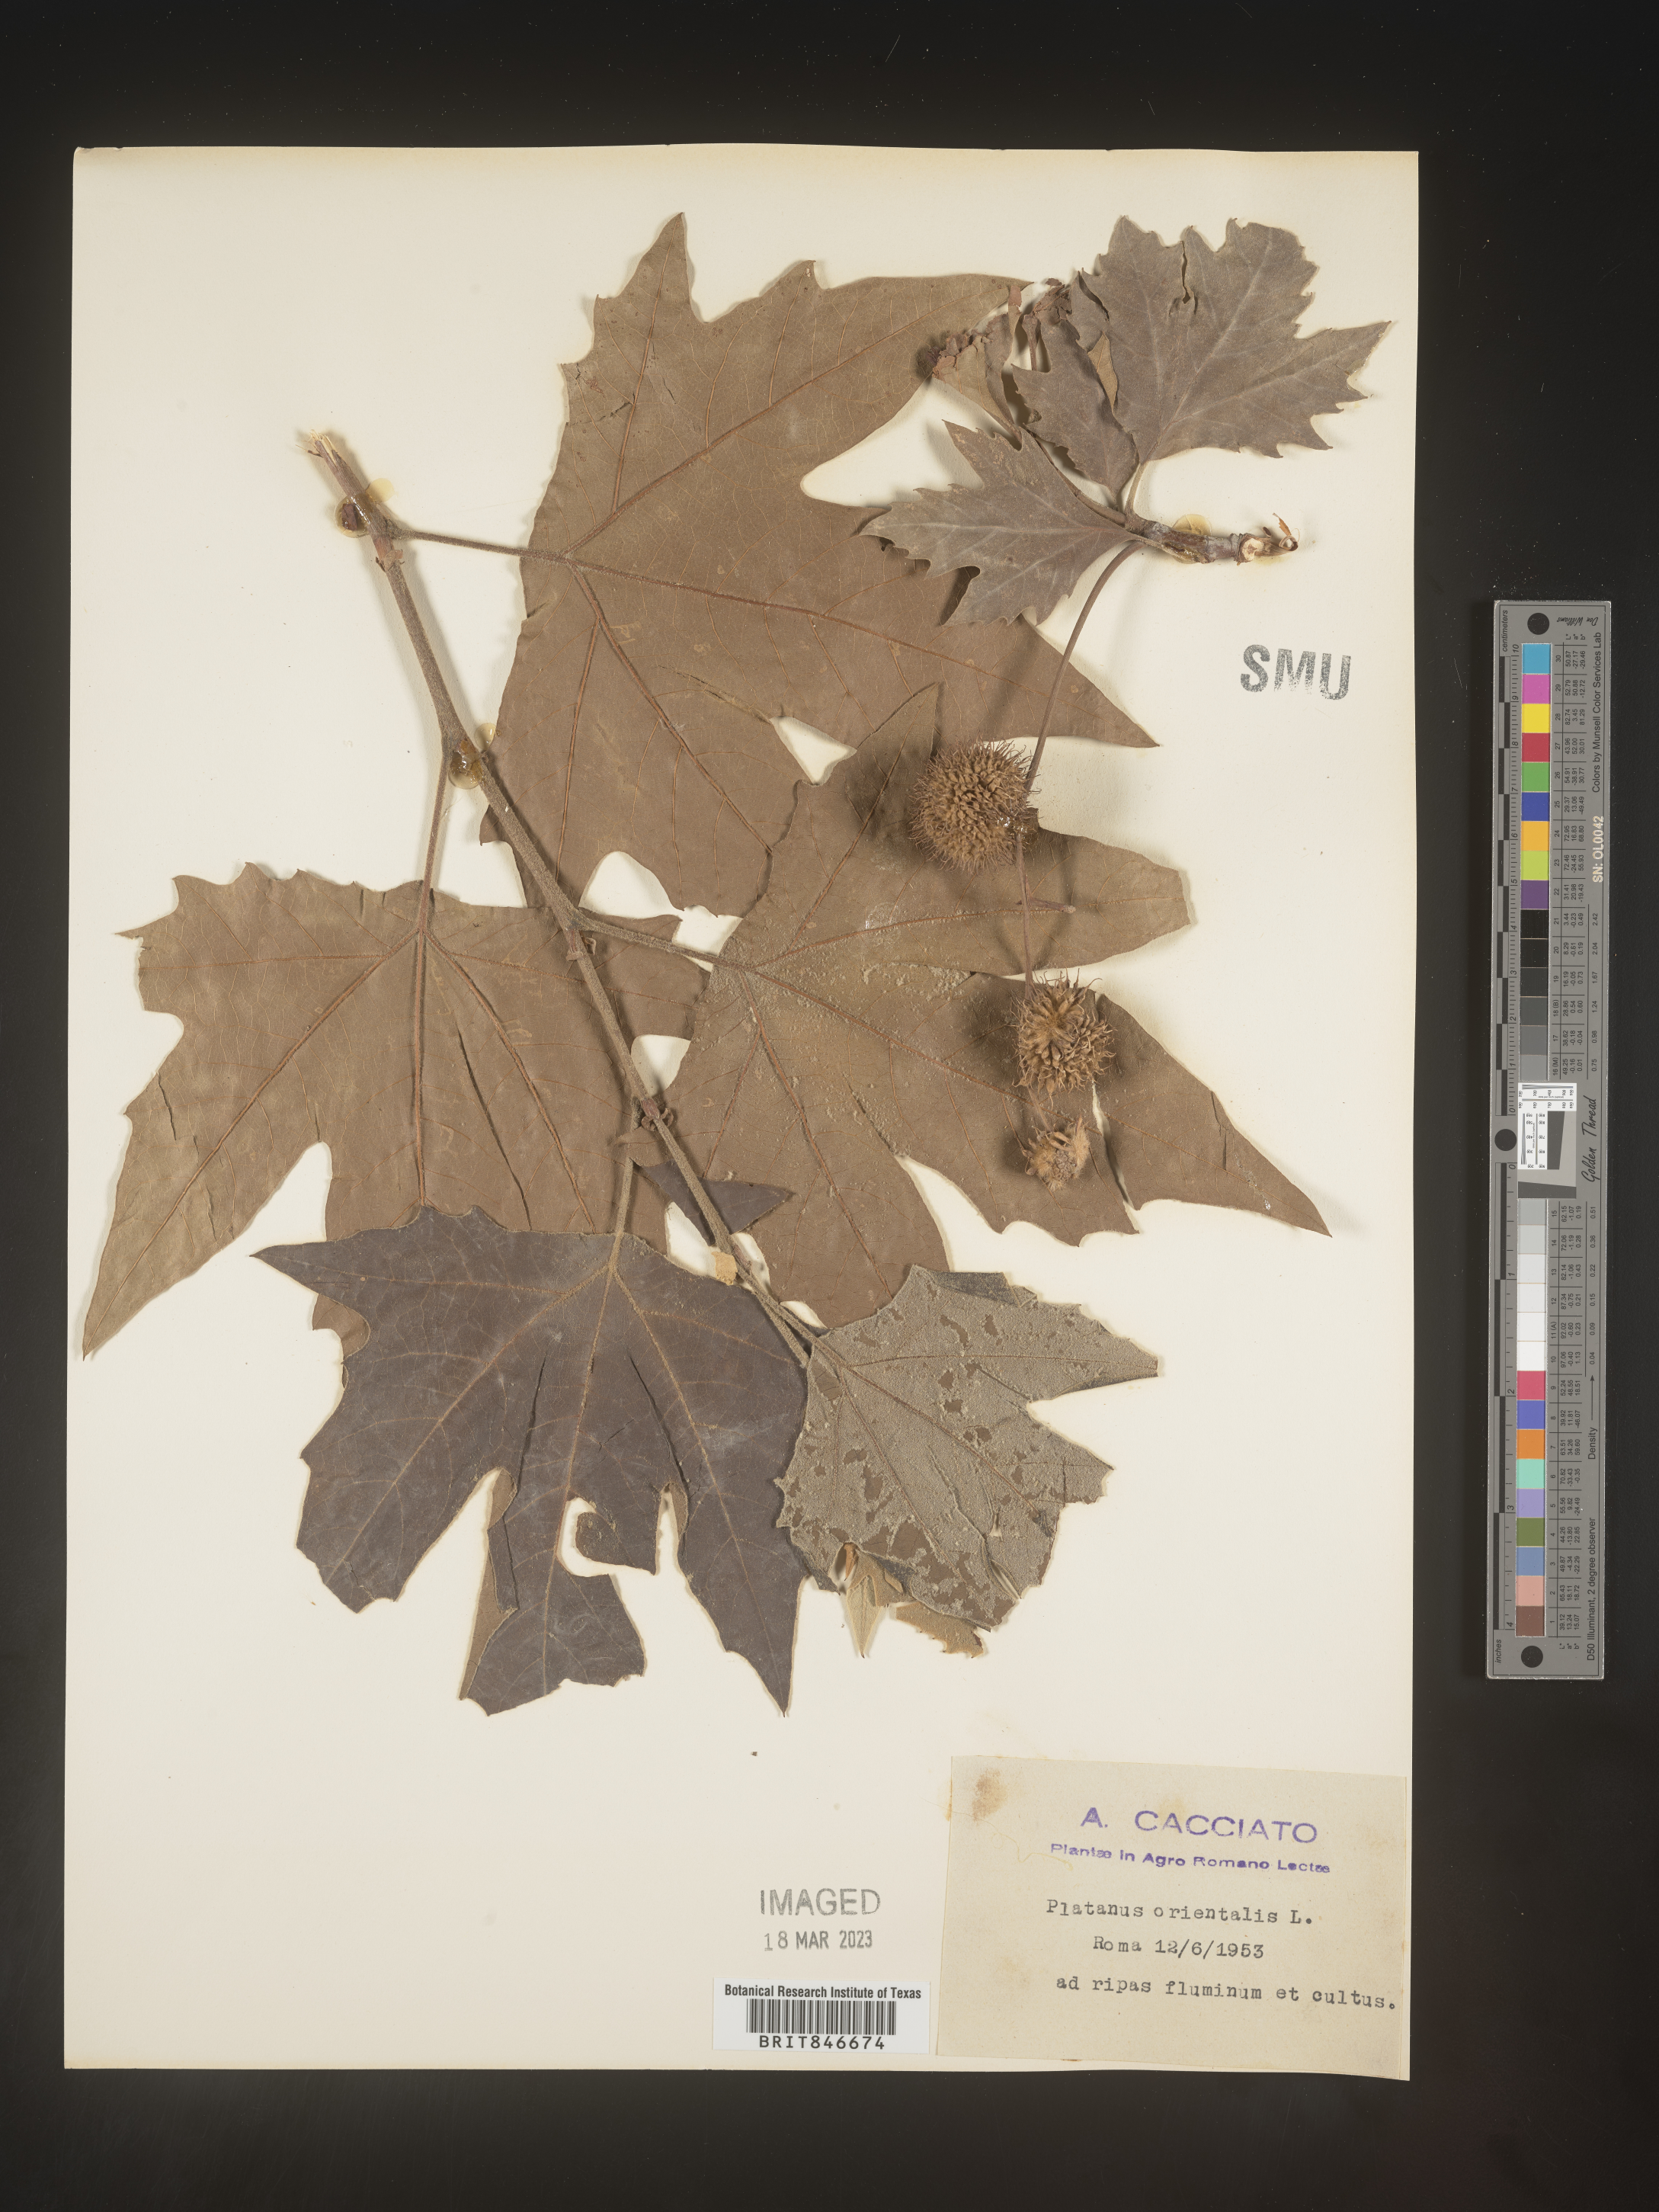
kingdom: Plantae
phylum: Tracheophyta
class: Magnoliopsida
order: Proteales
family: Platanaceae
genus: Platanus
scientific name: Platanus
